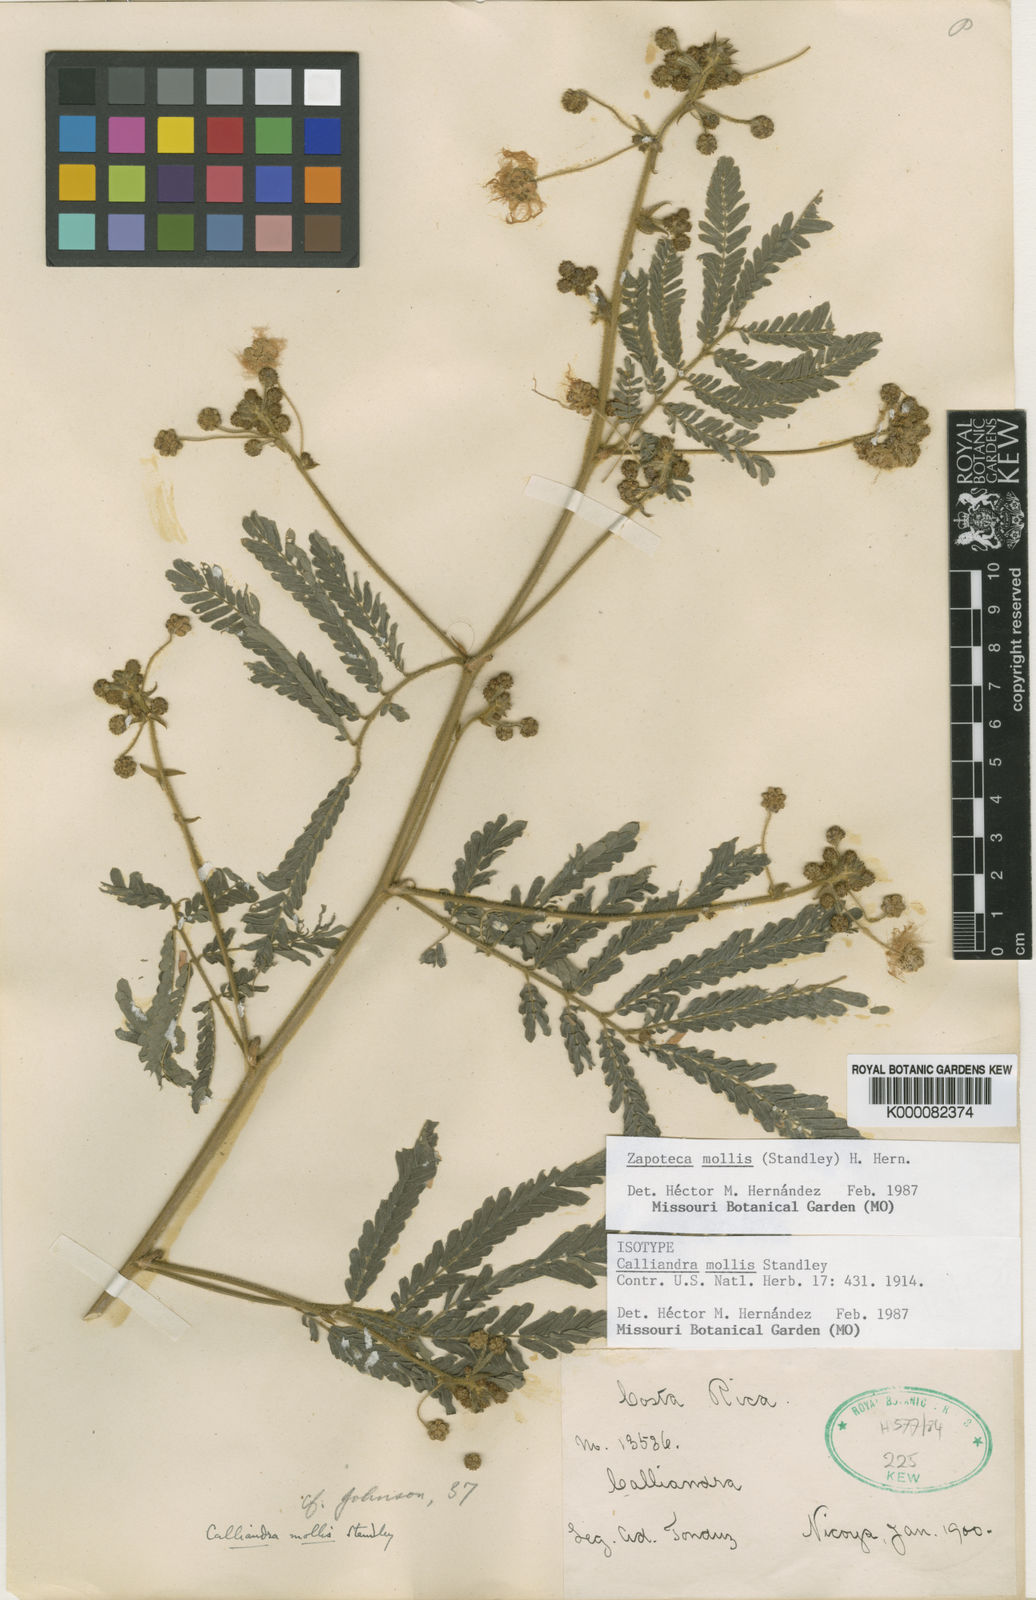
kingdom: Plantae
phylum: Tracheophyta
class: Magnoliopsida
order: Fabales
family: Fabaceae
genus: Zapoteca
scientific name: Zapoteca mollis
